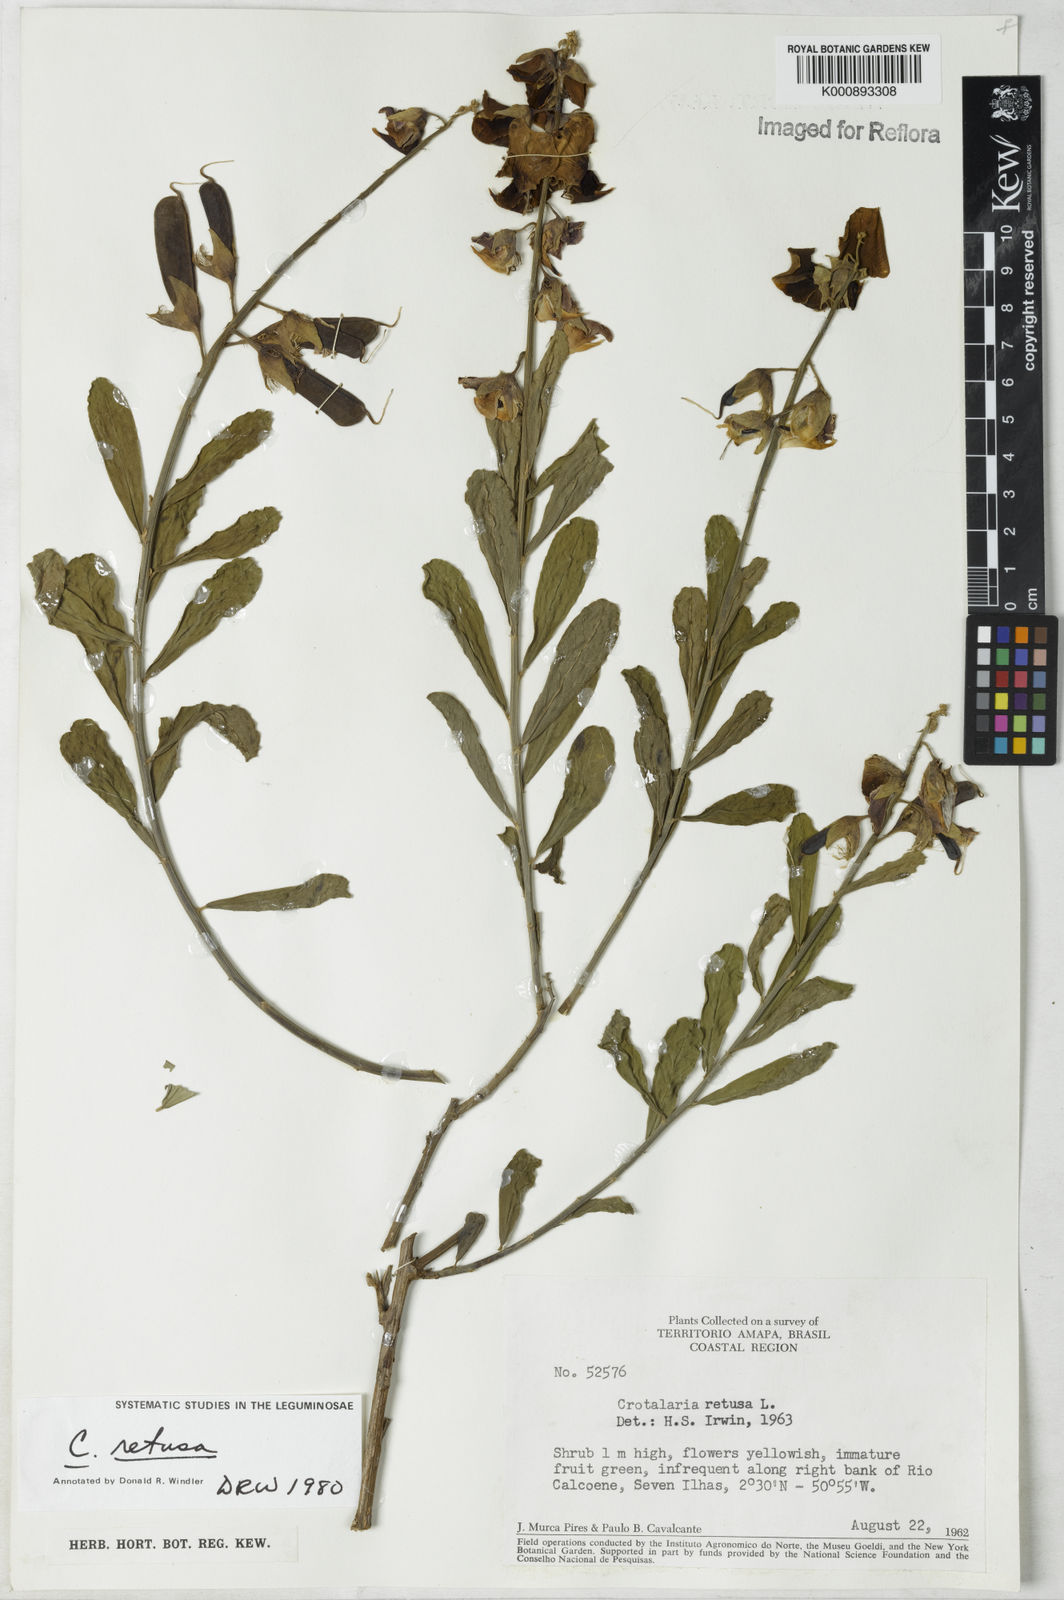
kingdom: Plantae
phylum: Tracheophyta
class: Magnoliopsida
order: Fabales
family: Fabaceae
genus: Crotalaria
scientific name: Crotalaria retusa
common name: Rattleweed
